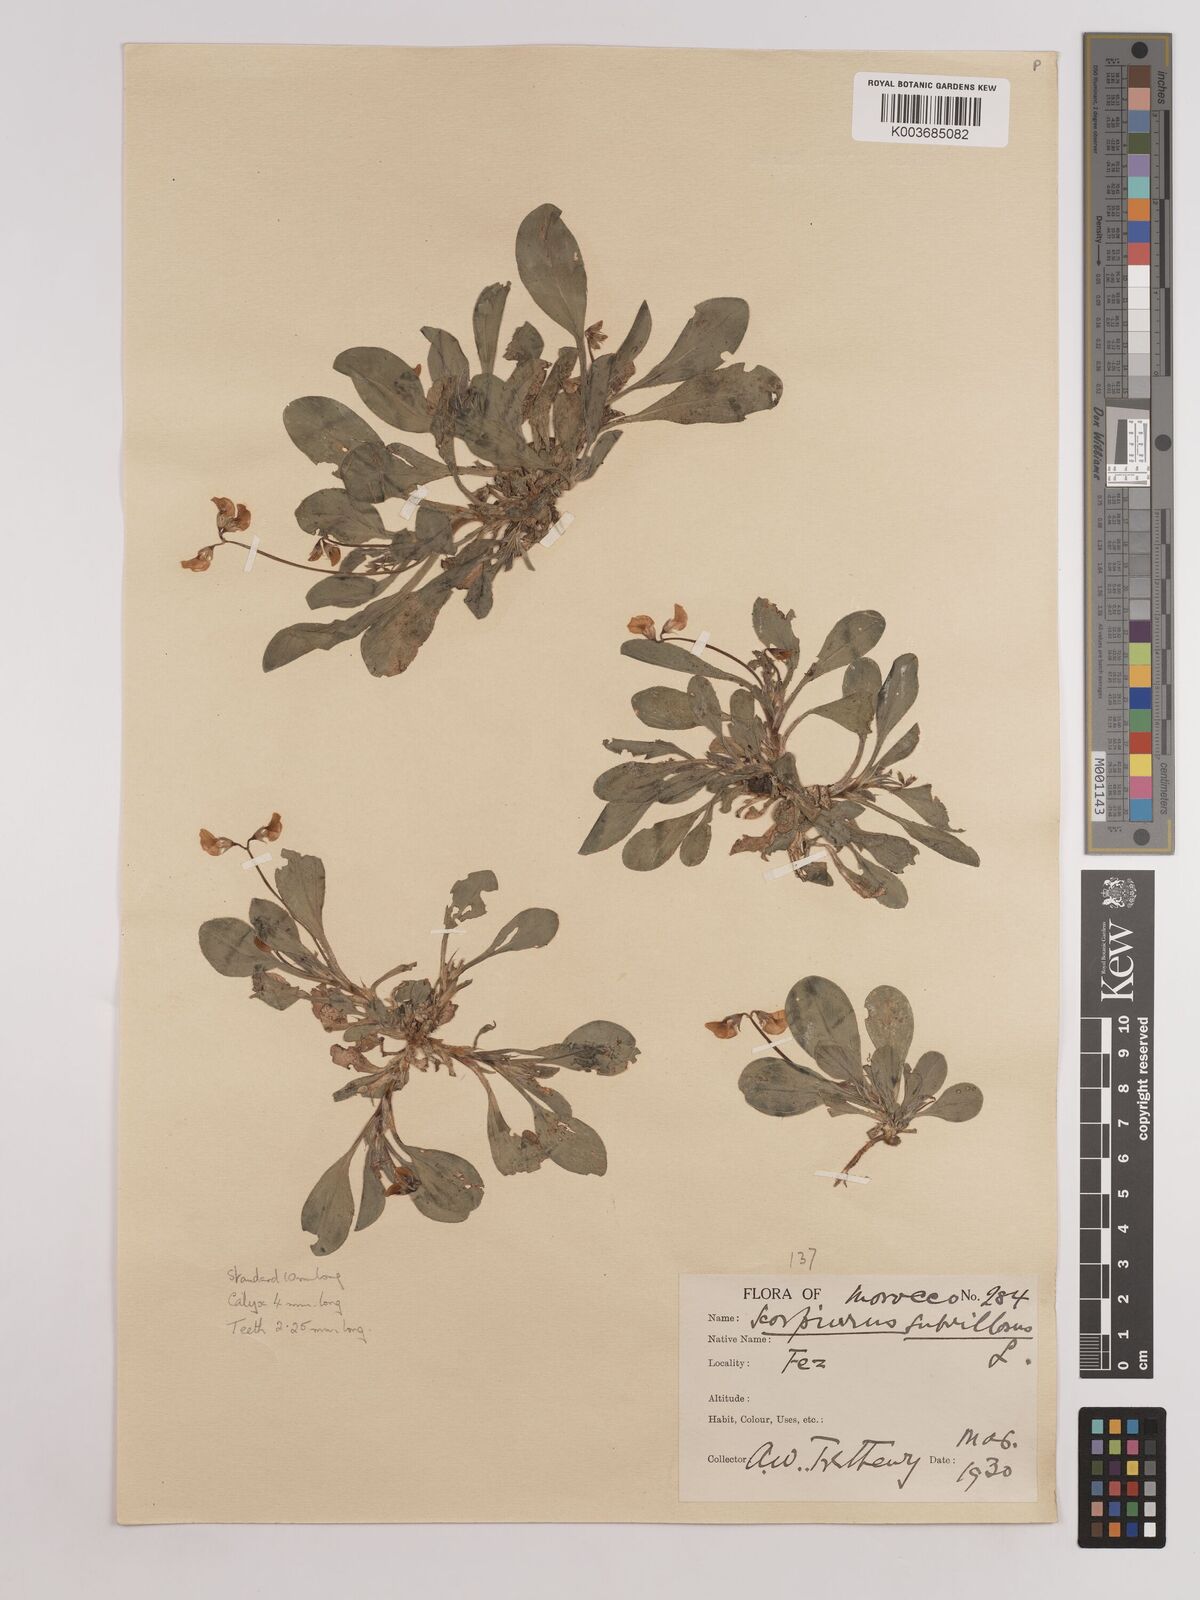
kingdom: Plantae
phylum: Tracheophyta
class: Magnoliopsida
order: Fabales
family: Fabaceae
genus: Scorpiurus
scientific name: Scorpiurus muricatus
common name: Caterpillar-plant
